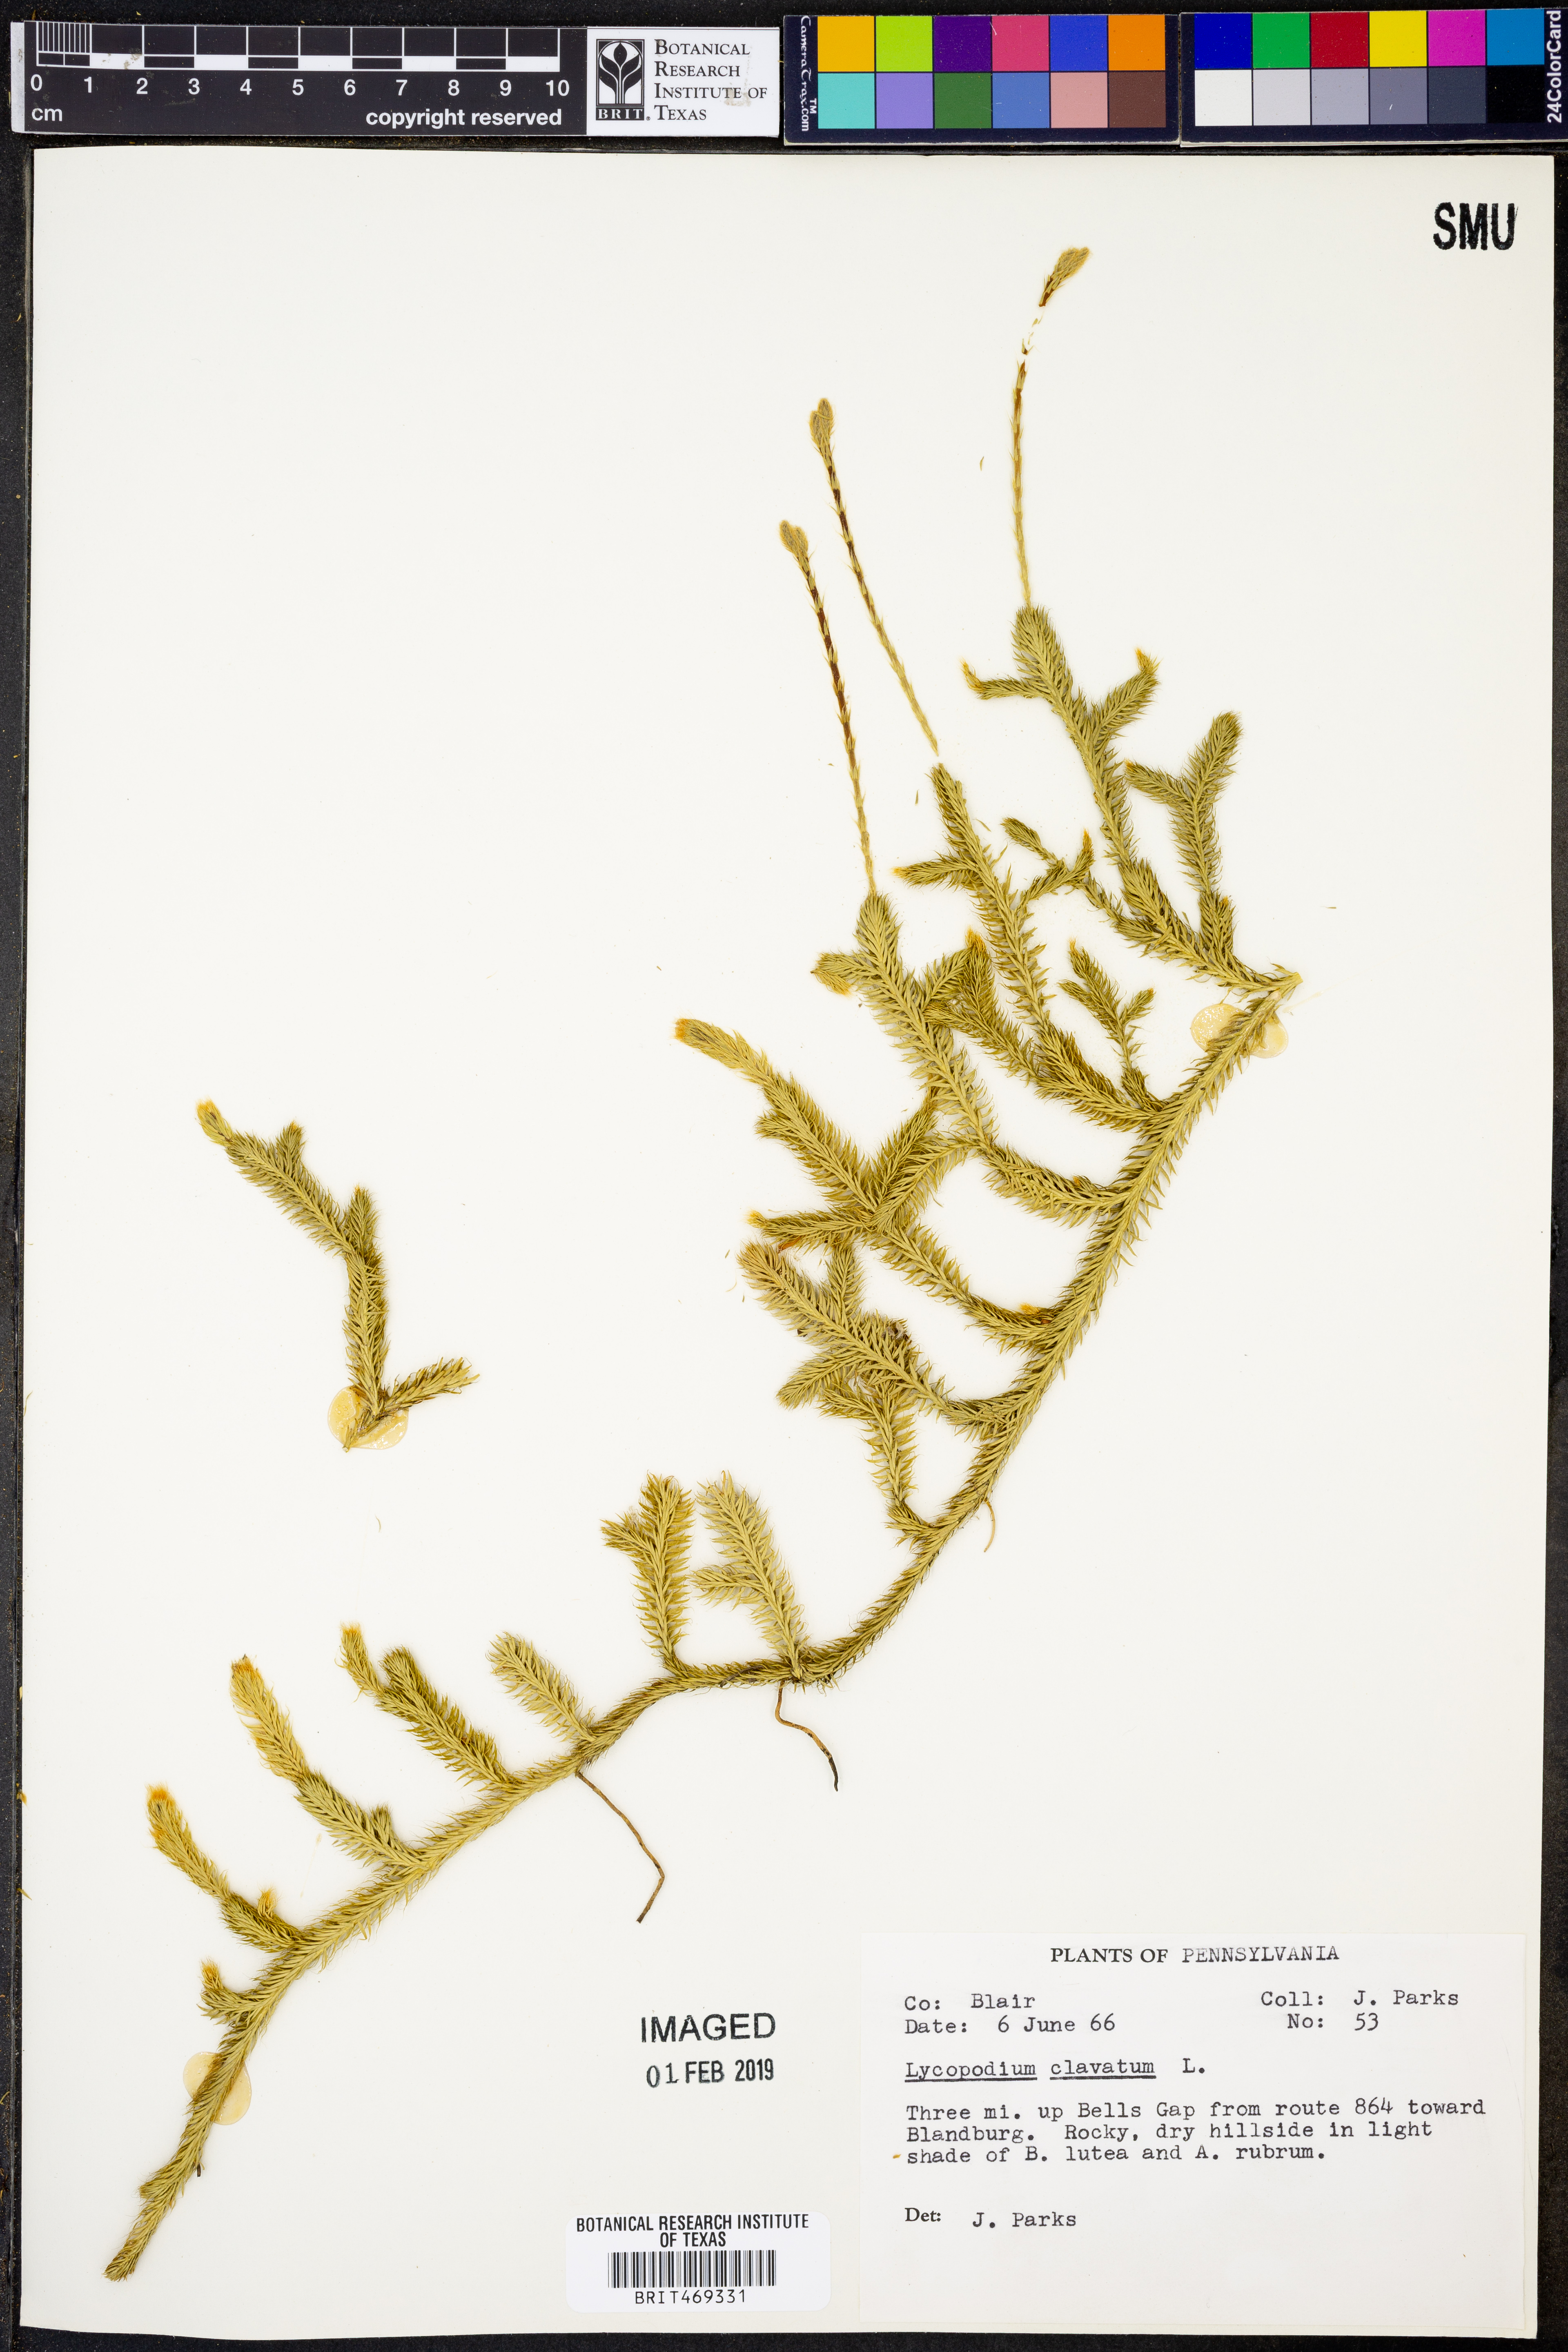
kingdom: Plantae
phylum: Tracheophyta
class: Lycopodiopsida
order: Lycopodiales
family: Lycopodiaceae
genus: Lycopodium
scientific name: Lycopodium clavatum
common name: Stag's-horn clubmoss
